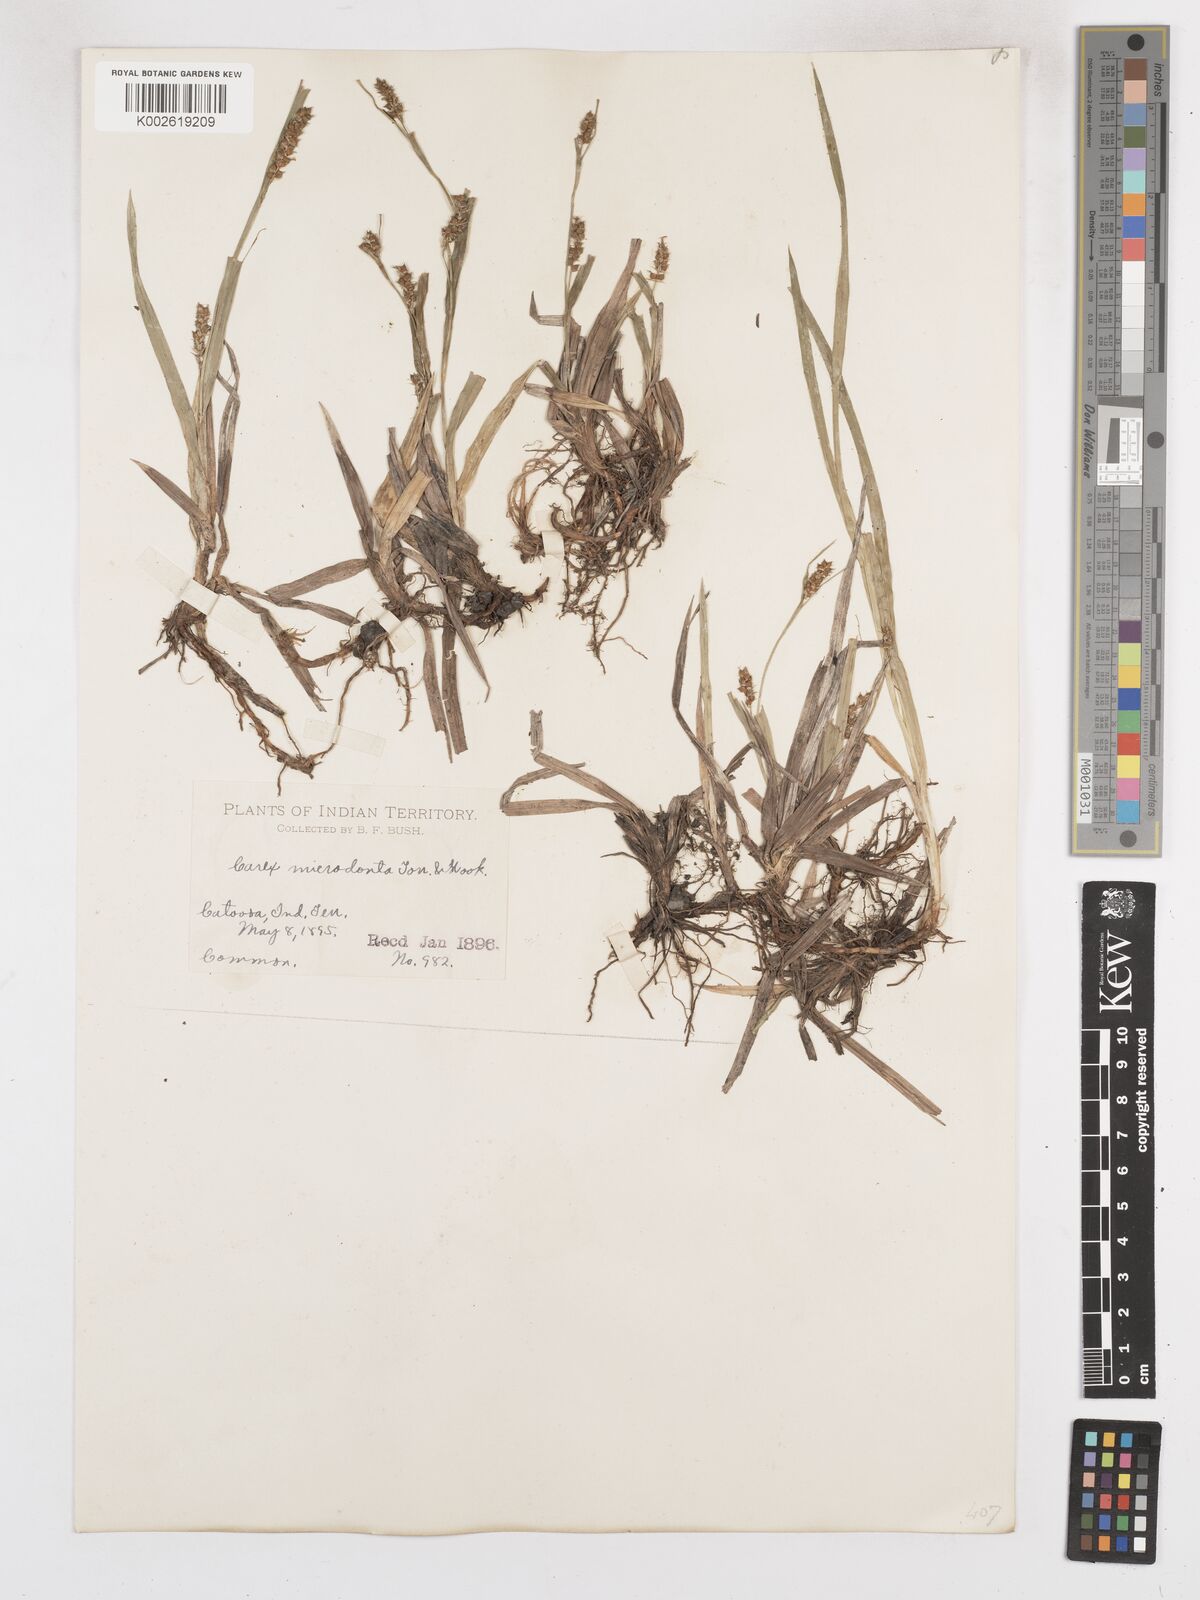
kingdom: Plantae
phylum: Tracheophyta
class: Liliopsida
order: Poales
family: Cyperaceae
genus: Carex
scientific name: Carex microdonta
